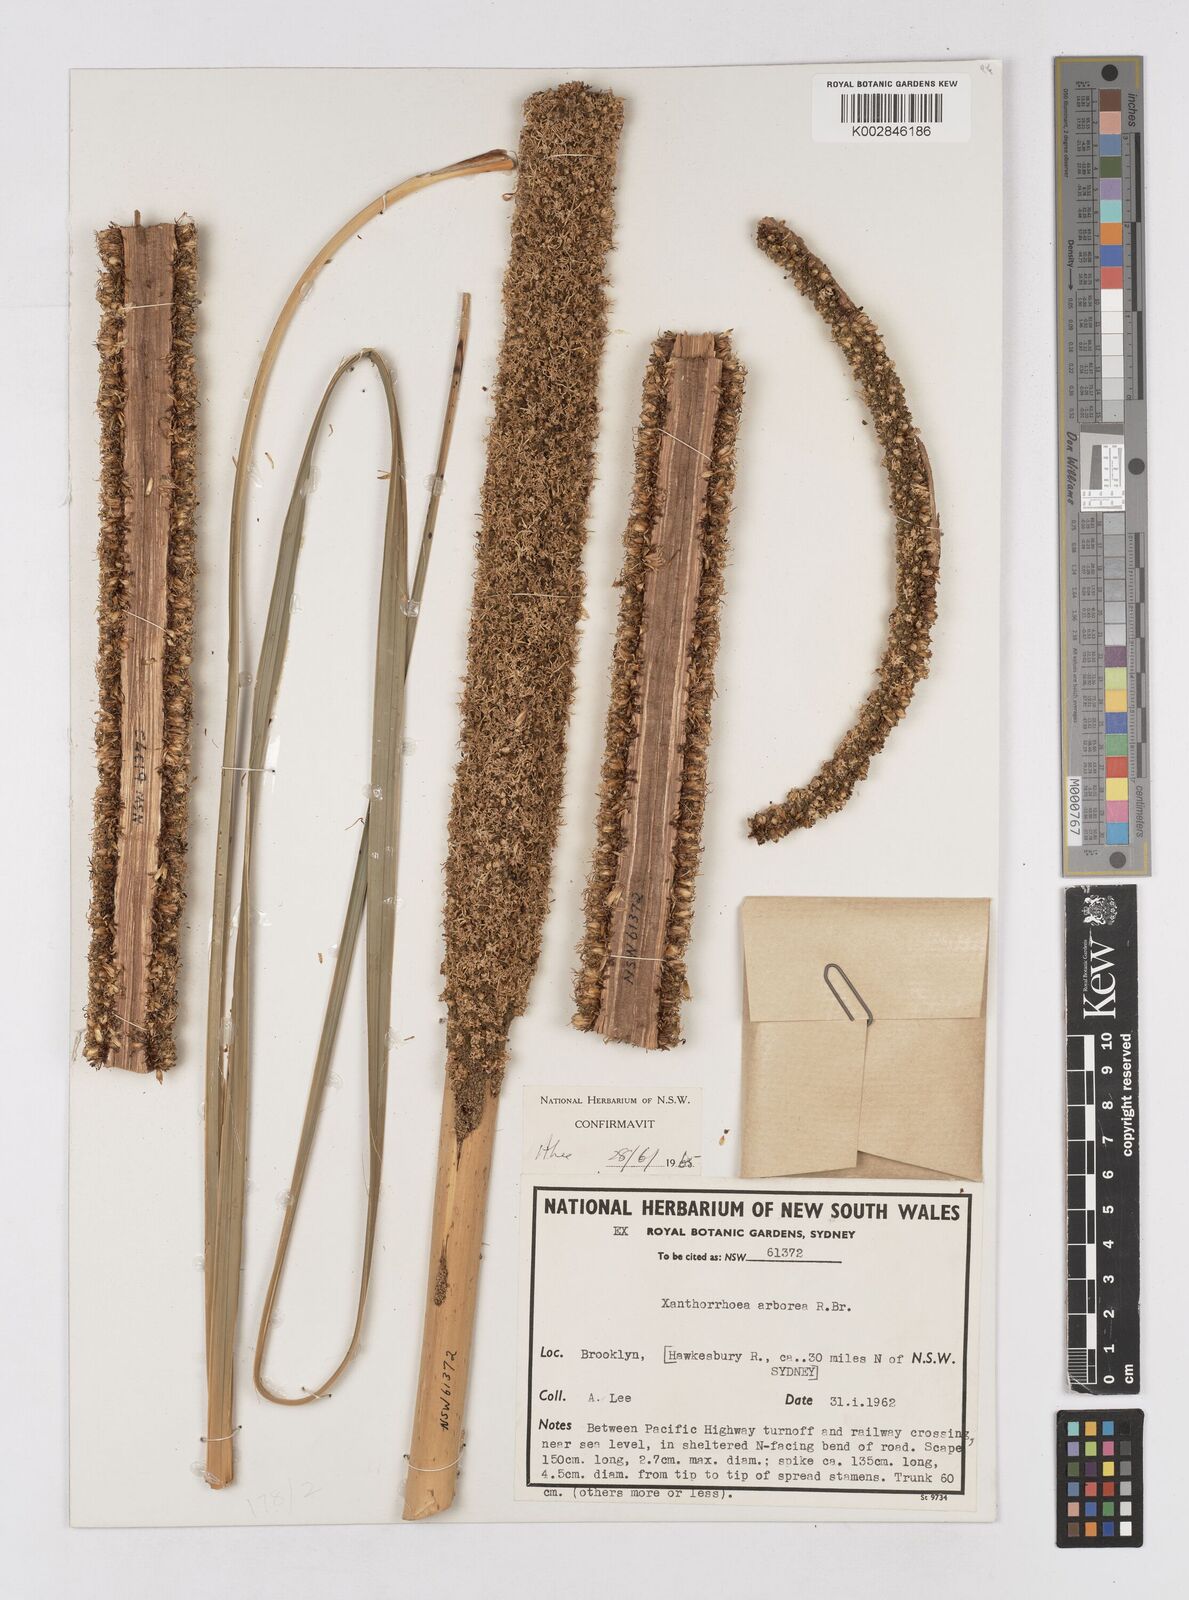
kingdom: Plantae
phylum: Tracheophyta
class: Liliopsida
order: Asparagales
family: Asphodelaceae
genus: Xanthorrhoea
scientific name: Xanthorrhoea arborea
